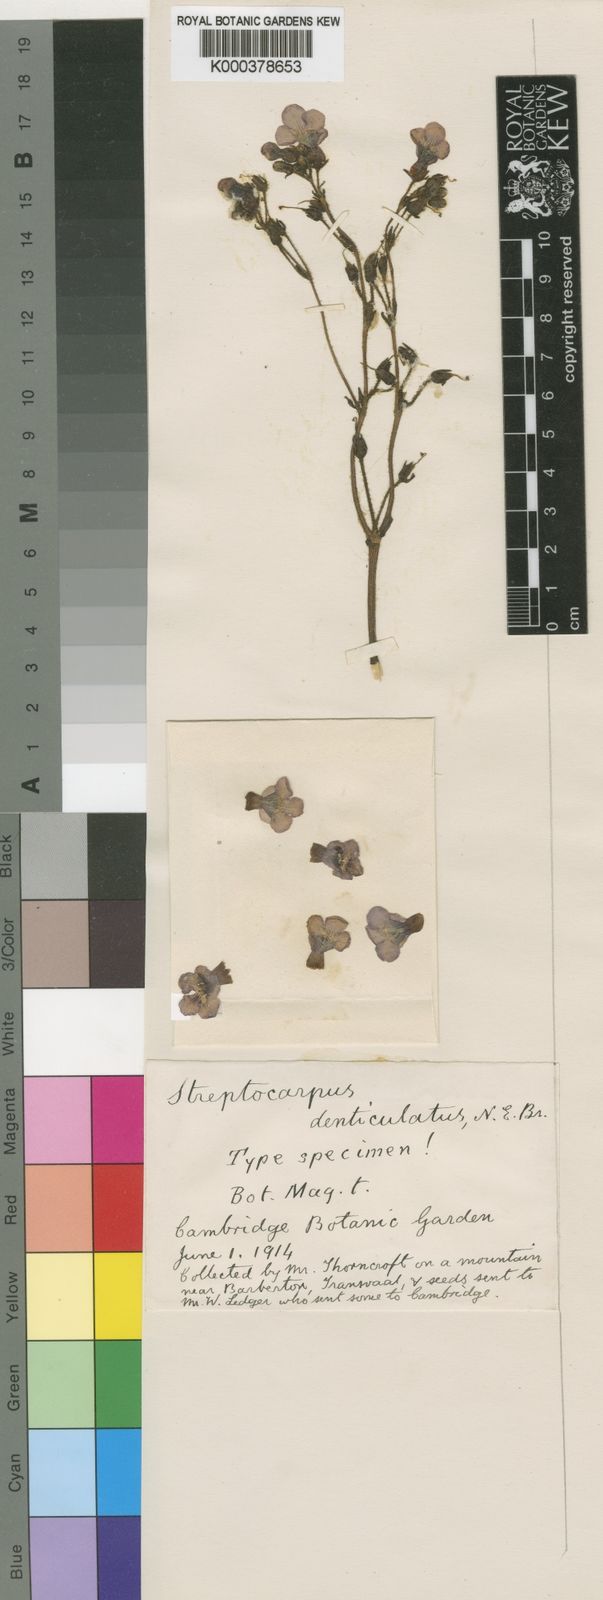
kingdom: Plantae
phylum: Tracheophyta
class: Magnoliopsida
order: Lamiales
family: Gesneriaceae
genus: Streptocarpus
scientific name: Streptocarpus
